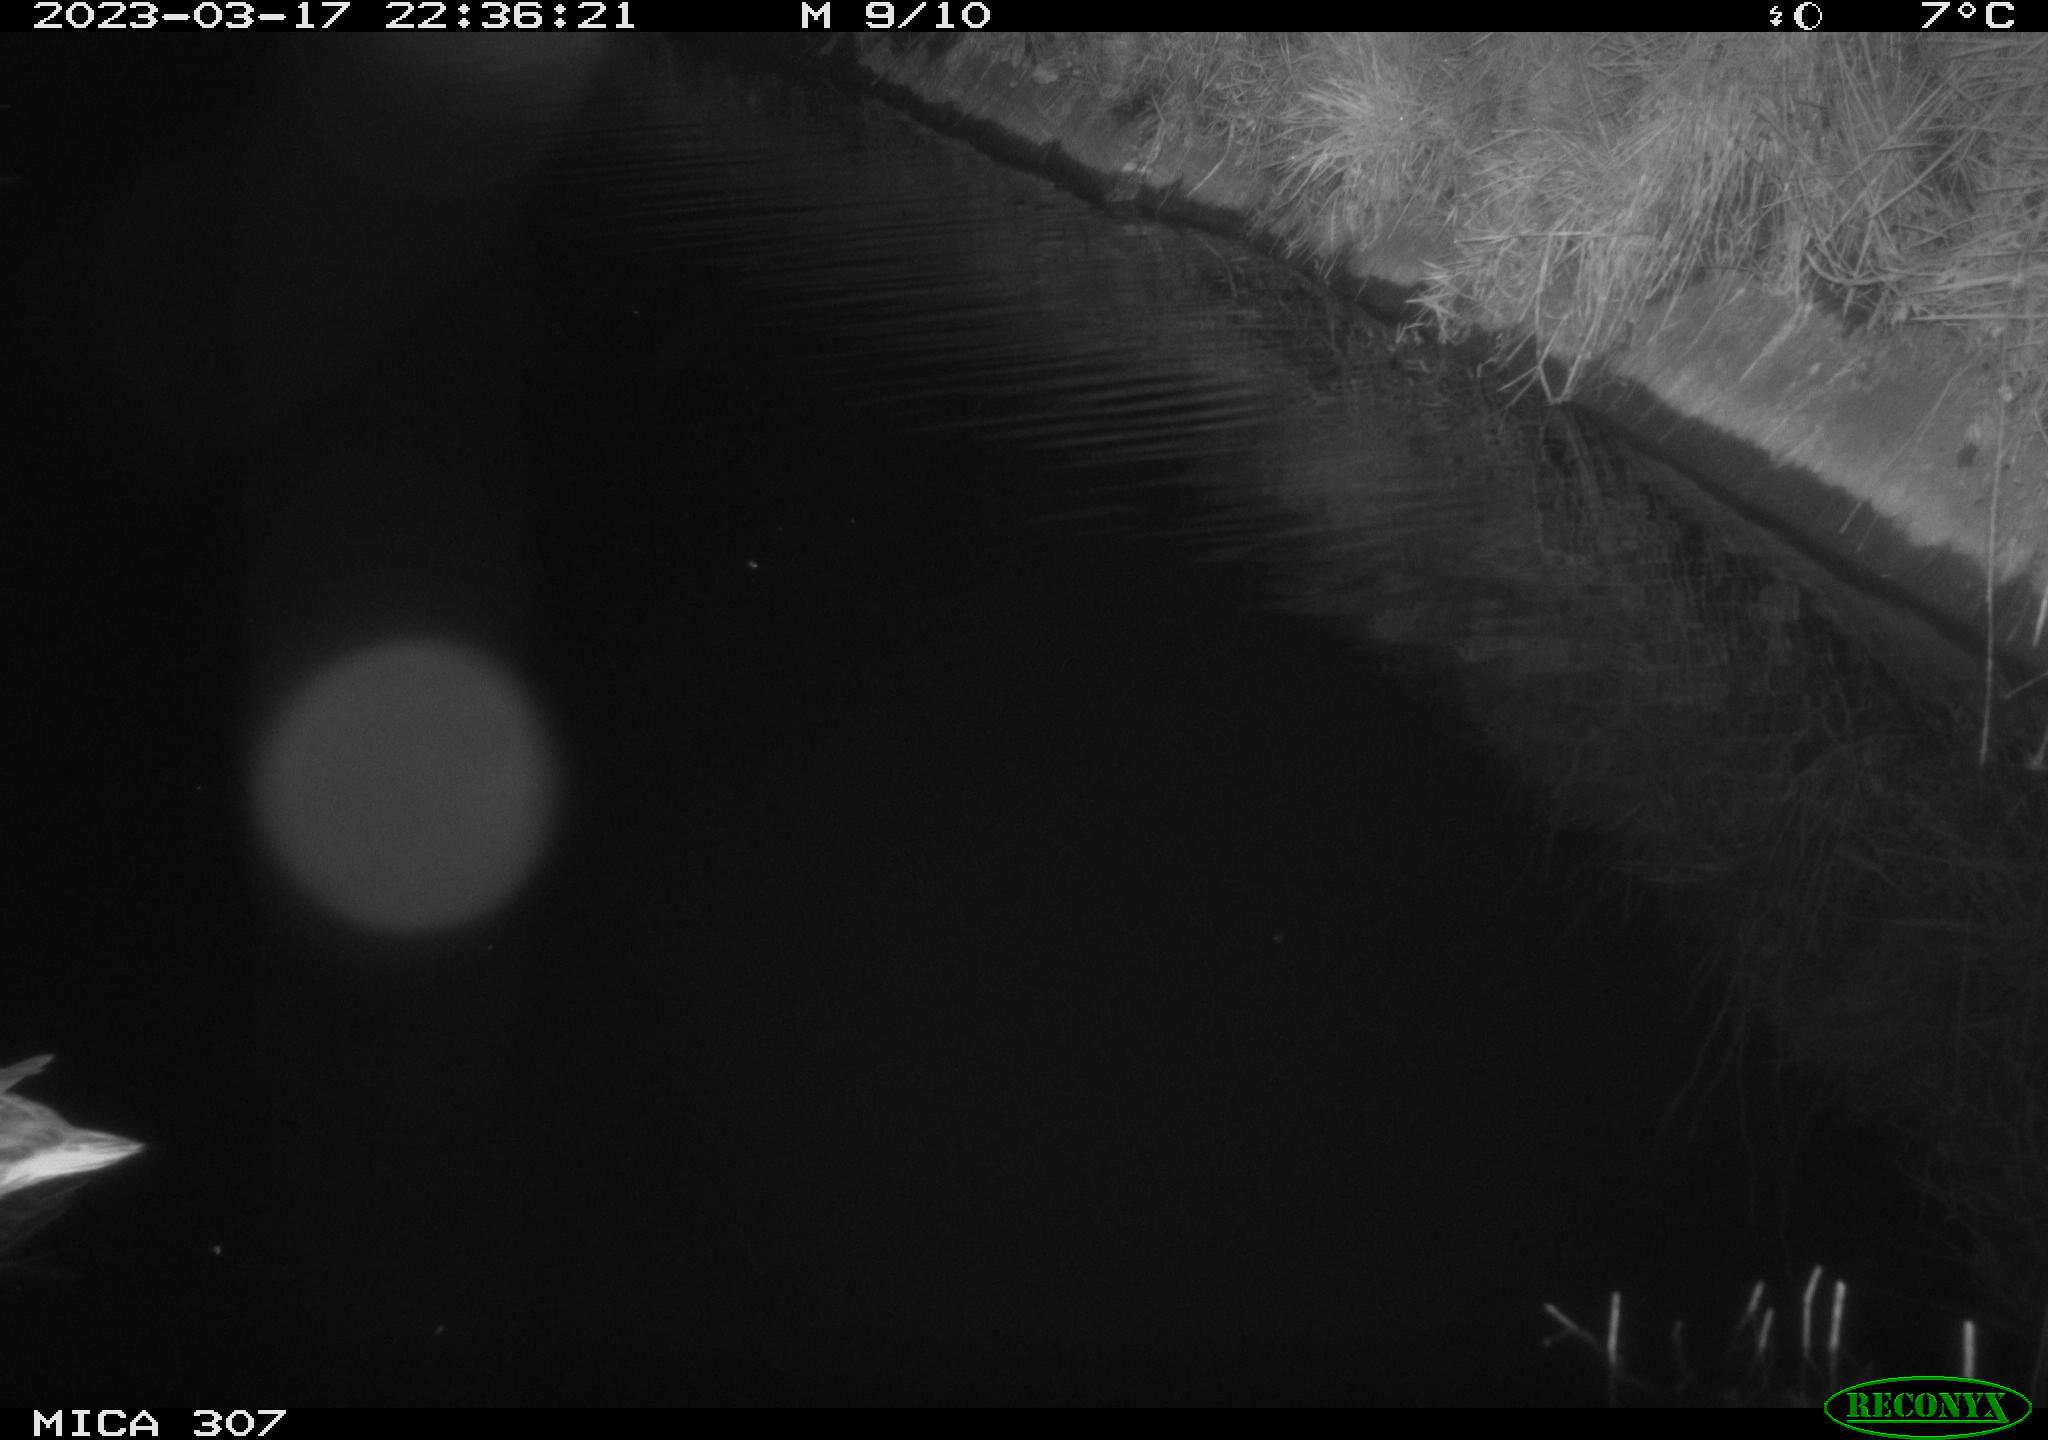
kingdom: Animalia
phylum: Chordata
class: Aves
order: Anseriformes
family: Anatidae
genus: Anas
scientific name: Anas
